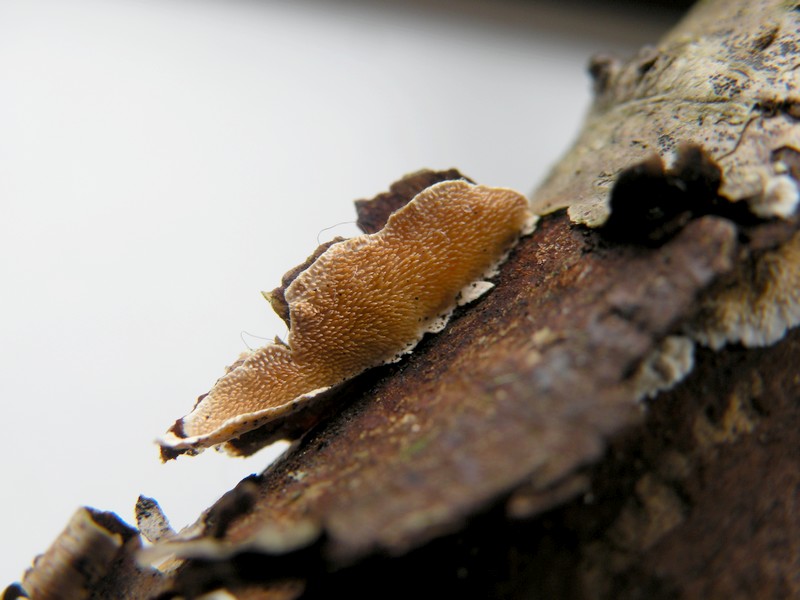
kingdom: Fungi
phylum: Basidiomycota
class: Agaricomycetes
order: Polyporales
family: Steccherinaceae
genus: Steccherinum
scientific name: Steccherinum ochraceum
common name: almindelig skønpig
